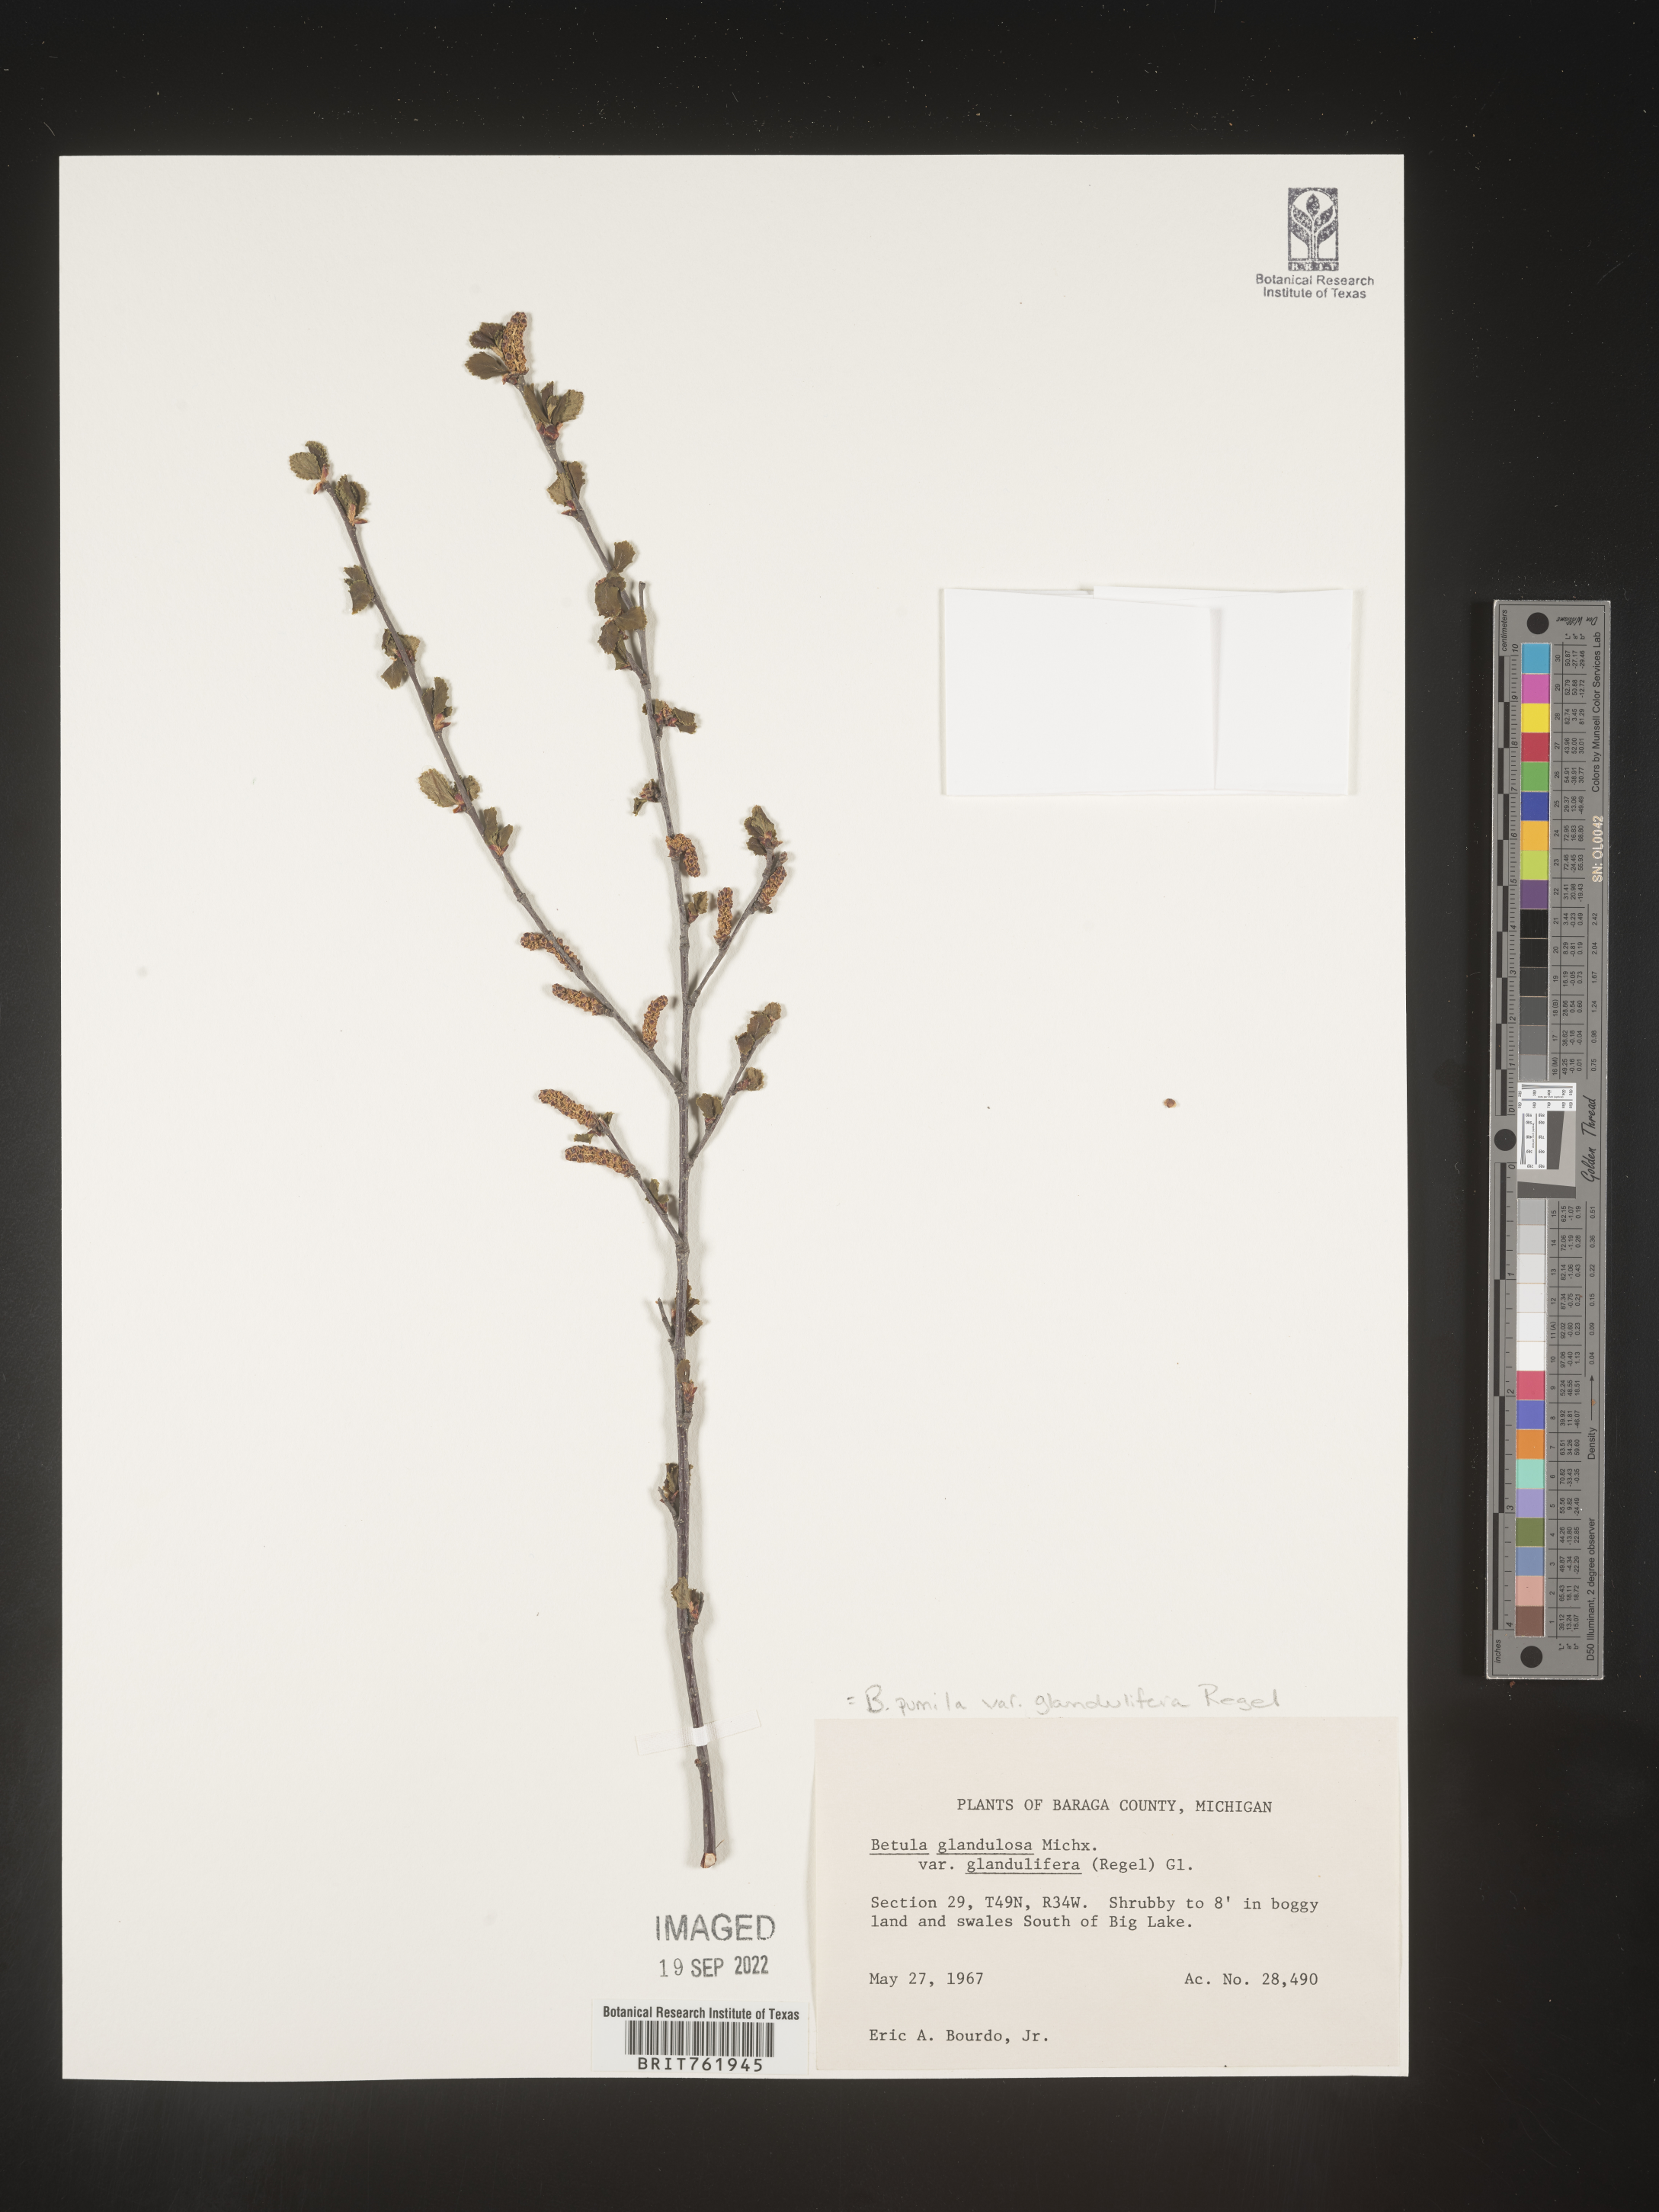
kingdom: Plantae
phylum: Tracheophyta
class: Magnoliopsida
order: Fagales
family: Betulaceae
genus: Betula
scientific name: Betula pumila
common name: Bog birch
